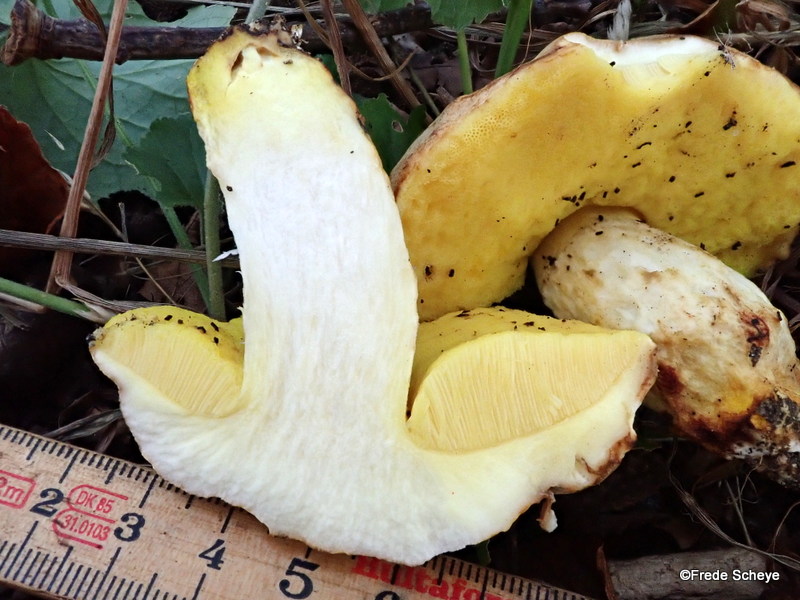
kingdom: Fungi
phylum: Basidiomycota
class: Agaricomycetes
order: Boletales
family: Boletaceae
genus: Aureoboletus
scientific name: Aureoboletus gentilis
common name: guldrørhat
